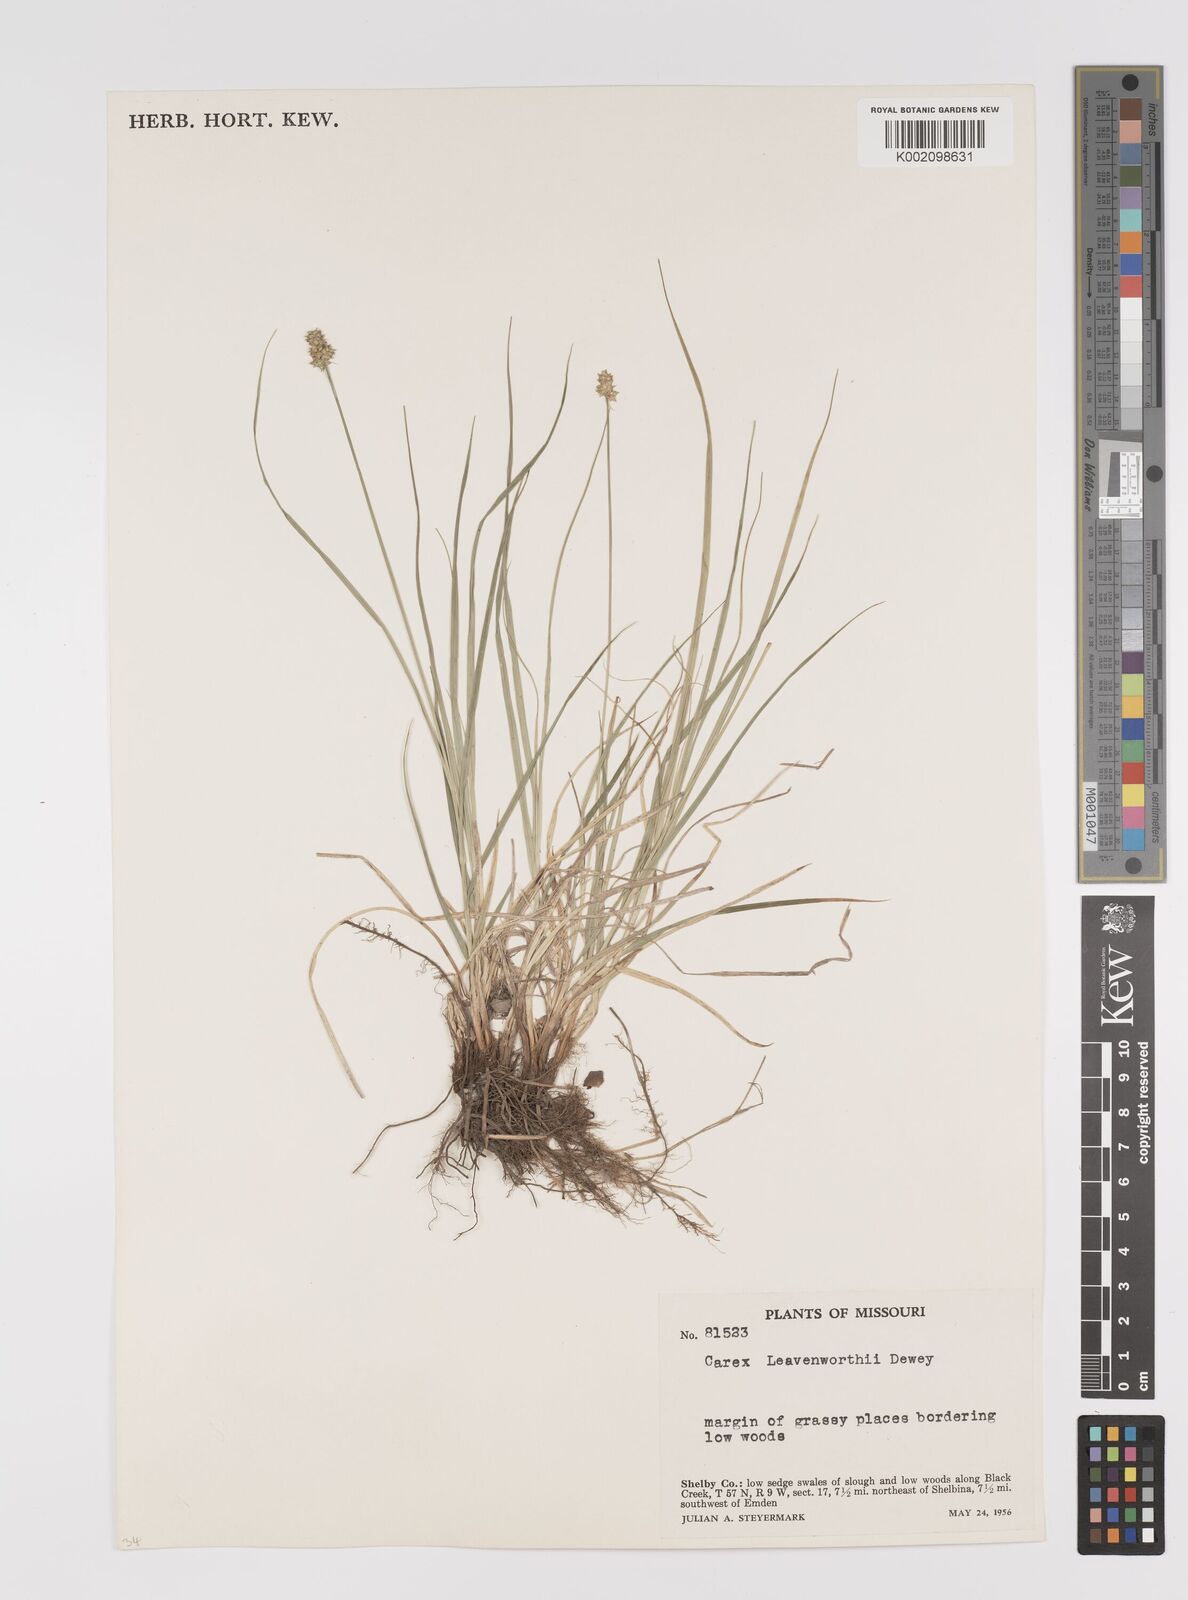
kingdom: Plantae
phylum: Tracheophyta
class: Liliopsida
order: Poales
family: Cyperaceae
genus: Carex
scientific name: Carex leavenworthii
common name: Leavenworth's bracted sedge
